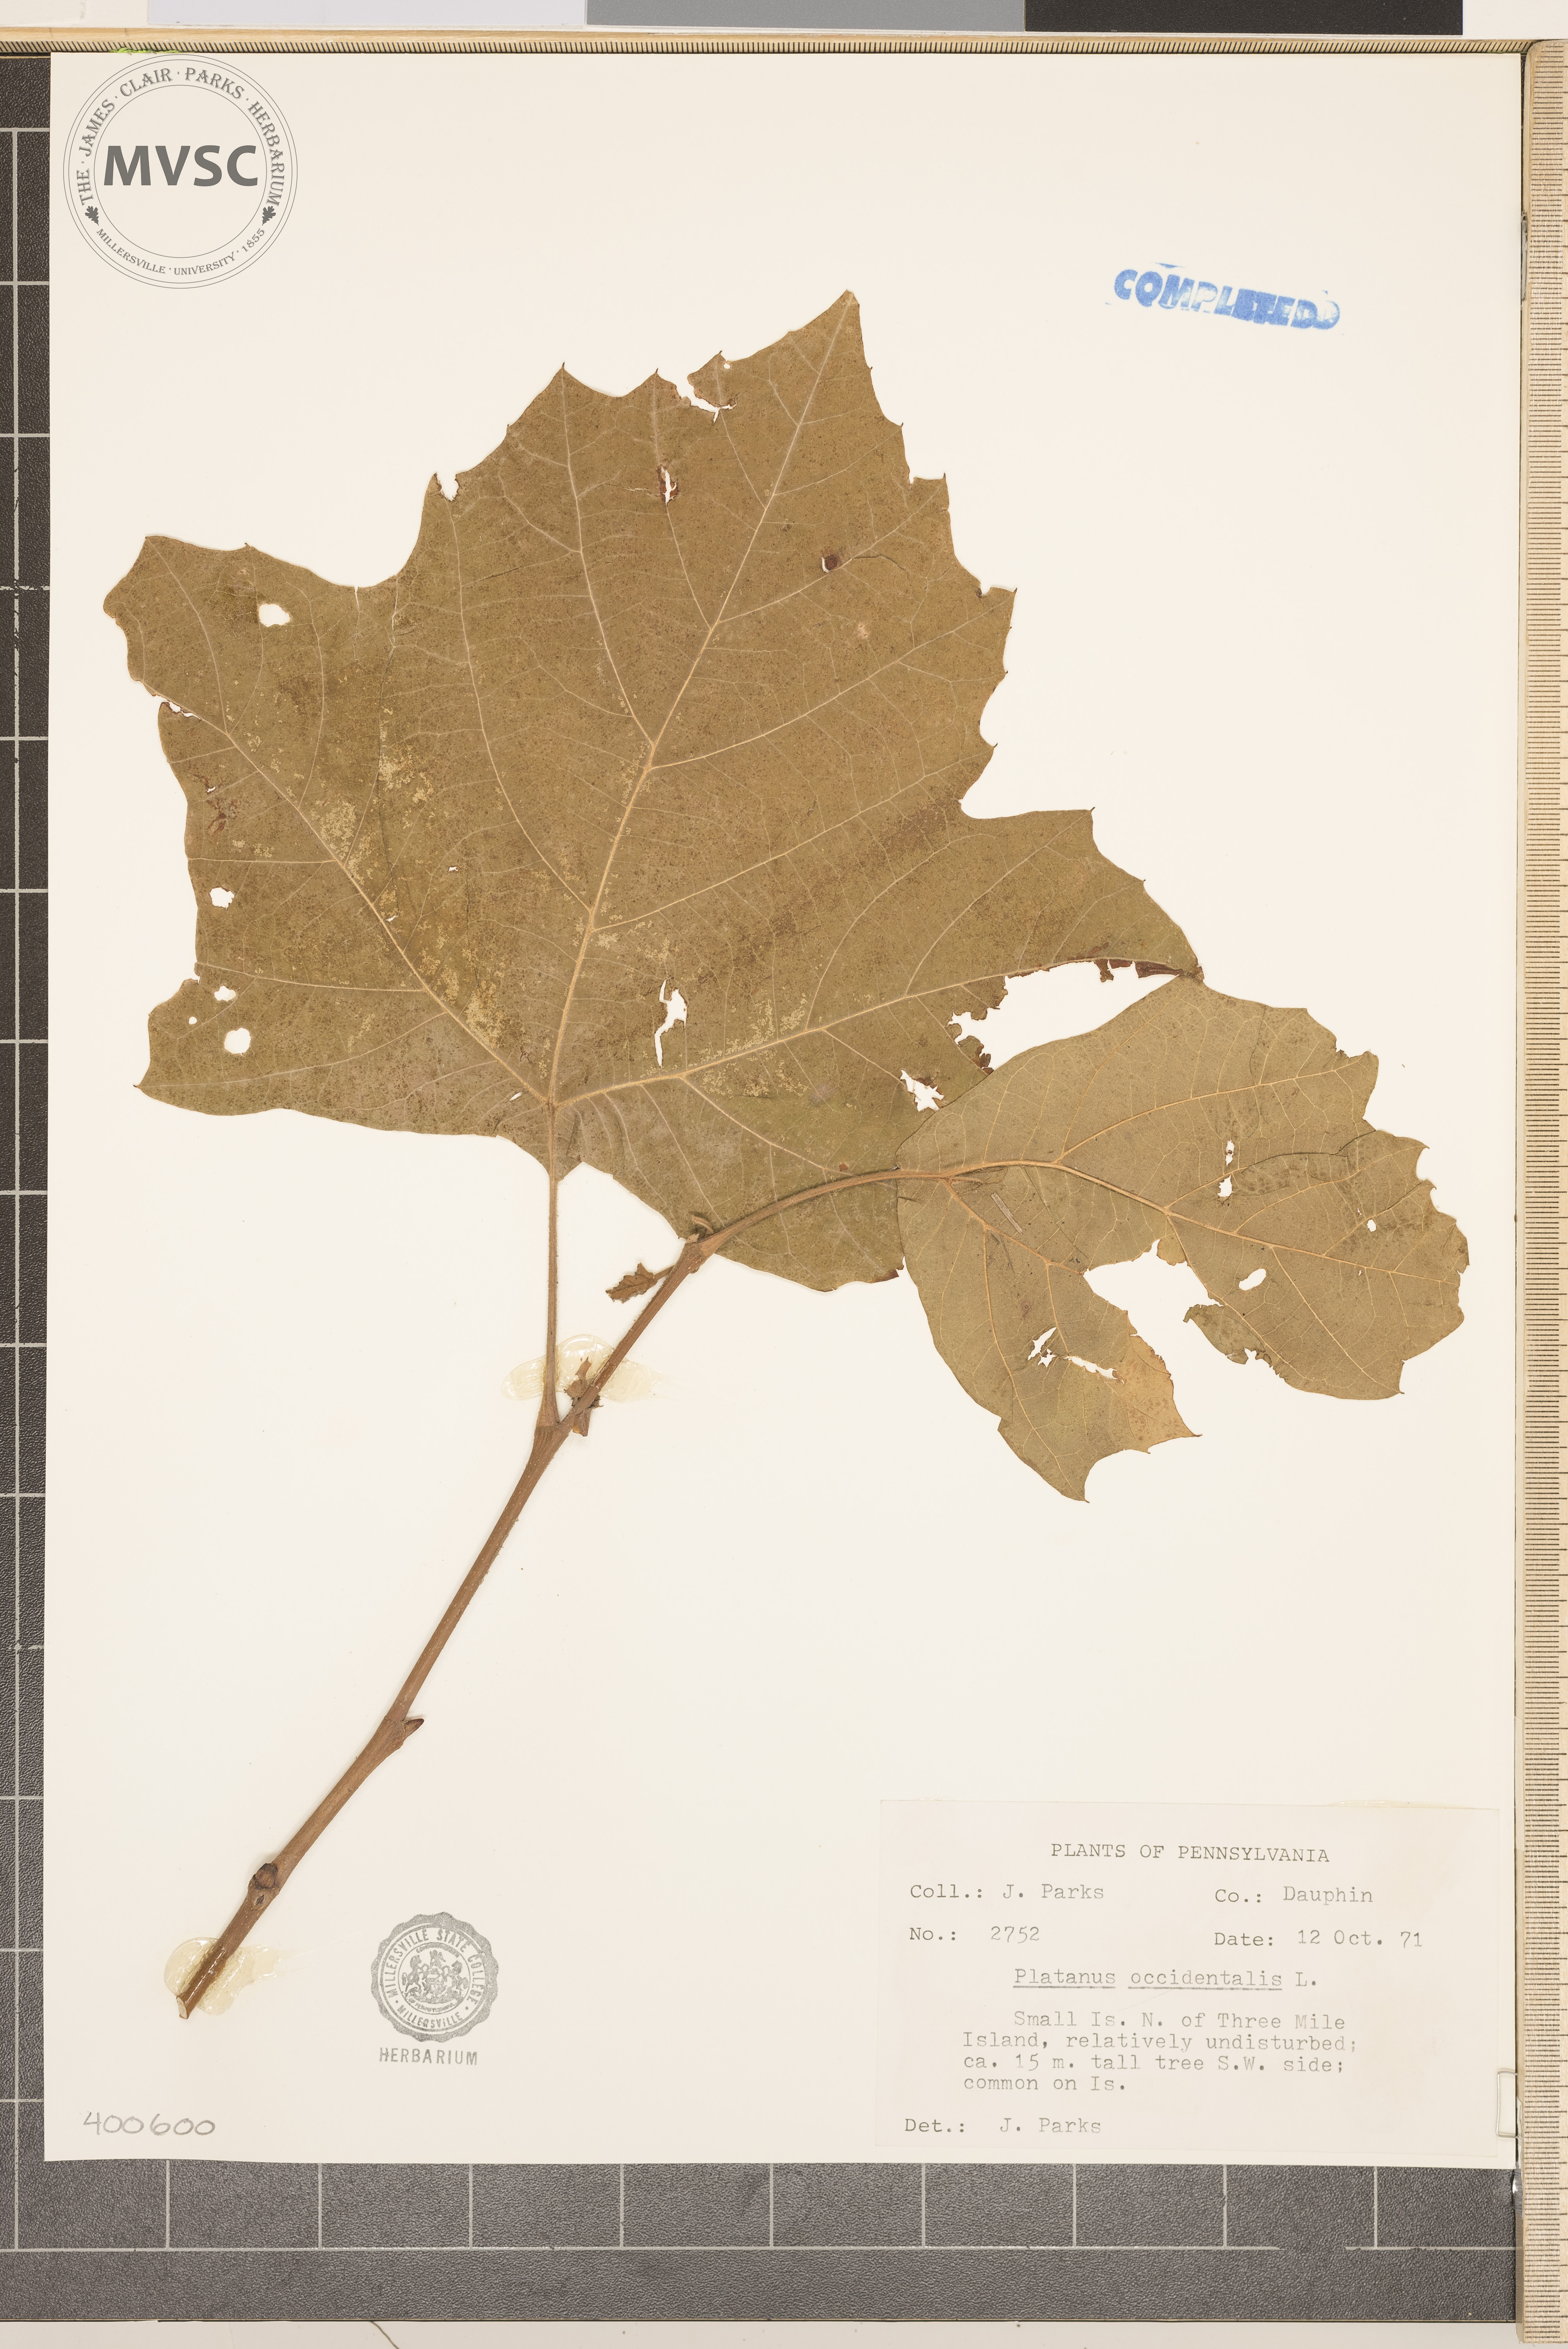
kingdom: Plantae
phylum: Tracheophyta
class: Magnoliopsida
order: Proteales
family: Platanaceae
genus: Platanus
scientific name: Platanus occidentalis
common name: sycamore
